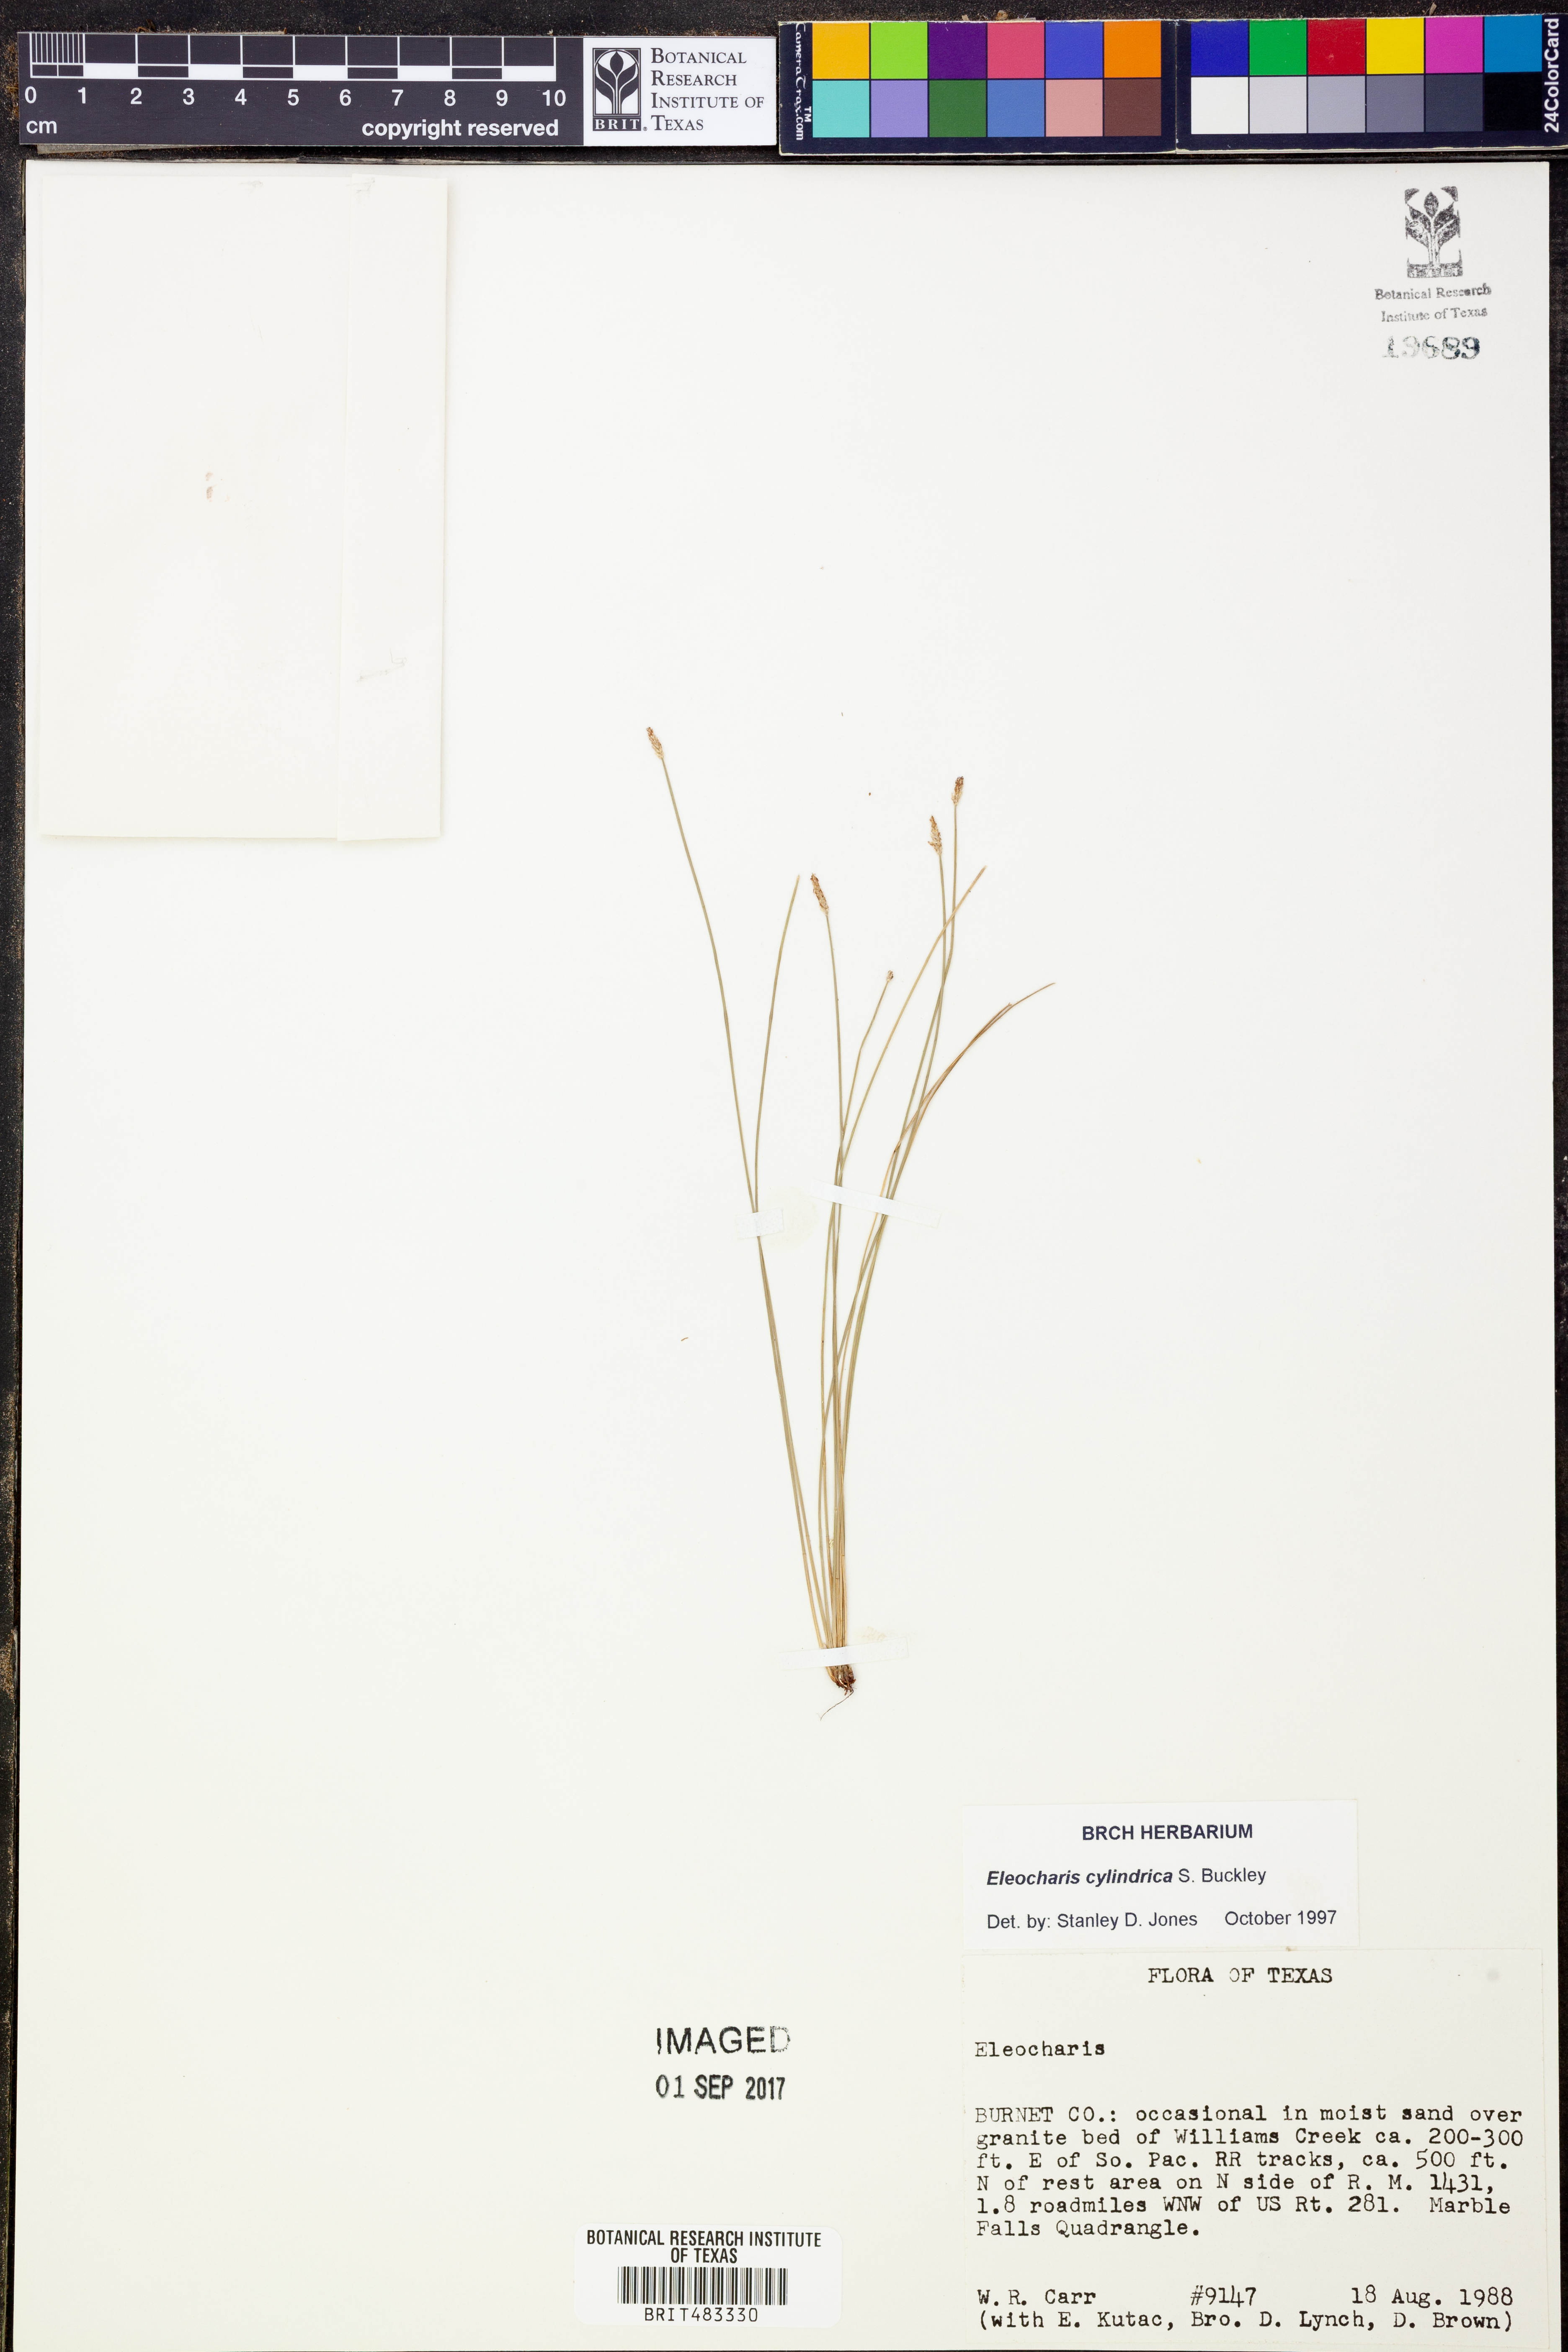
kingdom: Plantae
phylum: Tracheophyta
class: Liliopsida
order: Poales
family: Cyperaceae
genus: Eleocharis
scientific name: Eleocharis cylindrica
